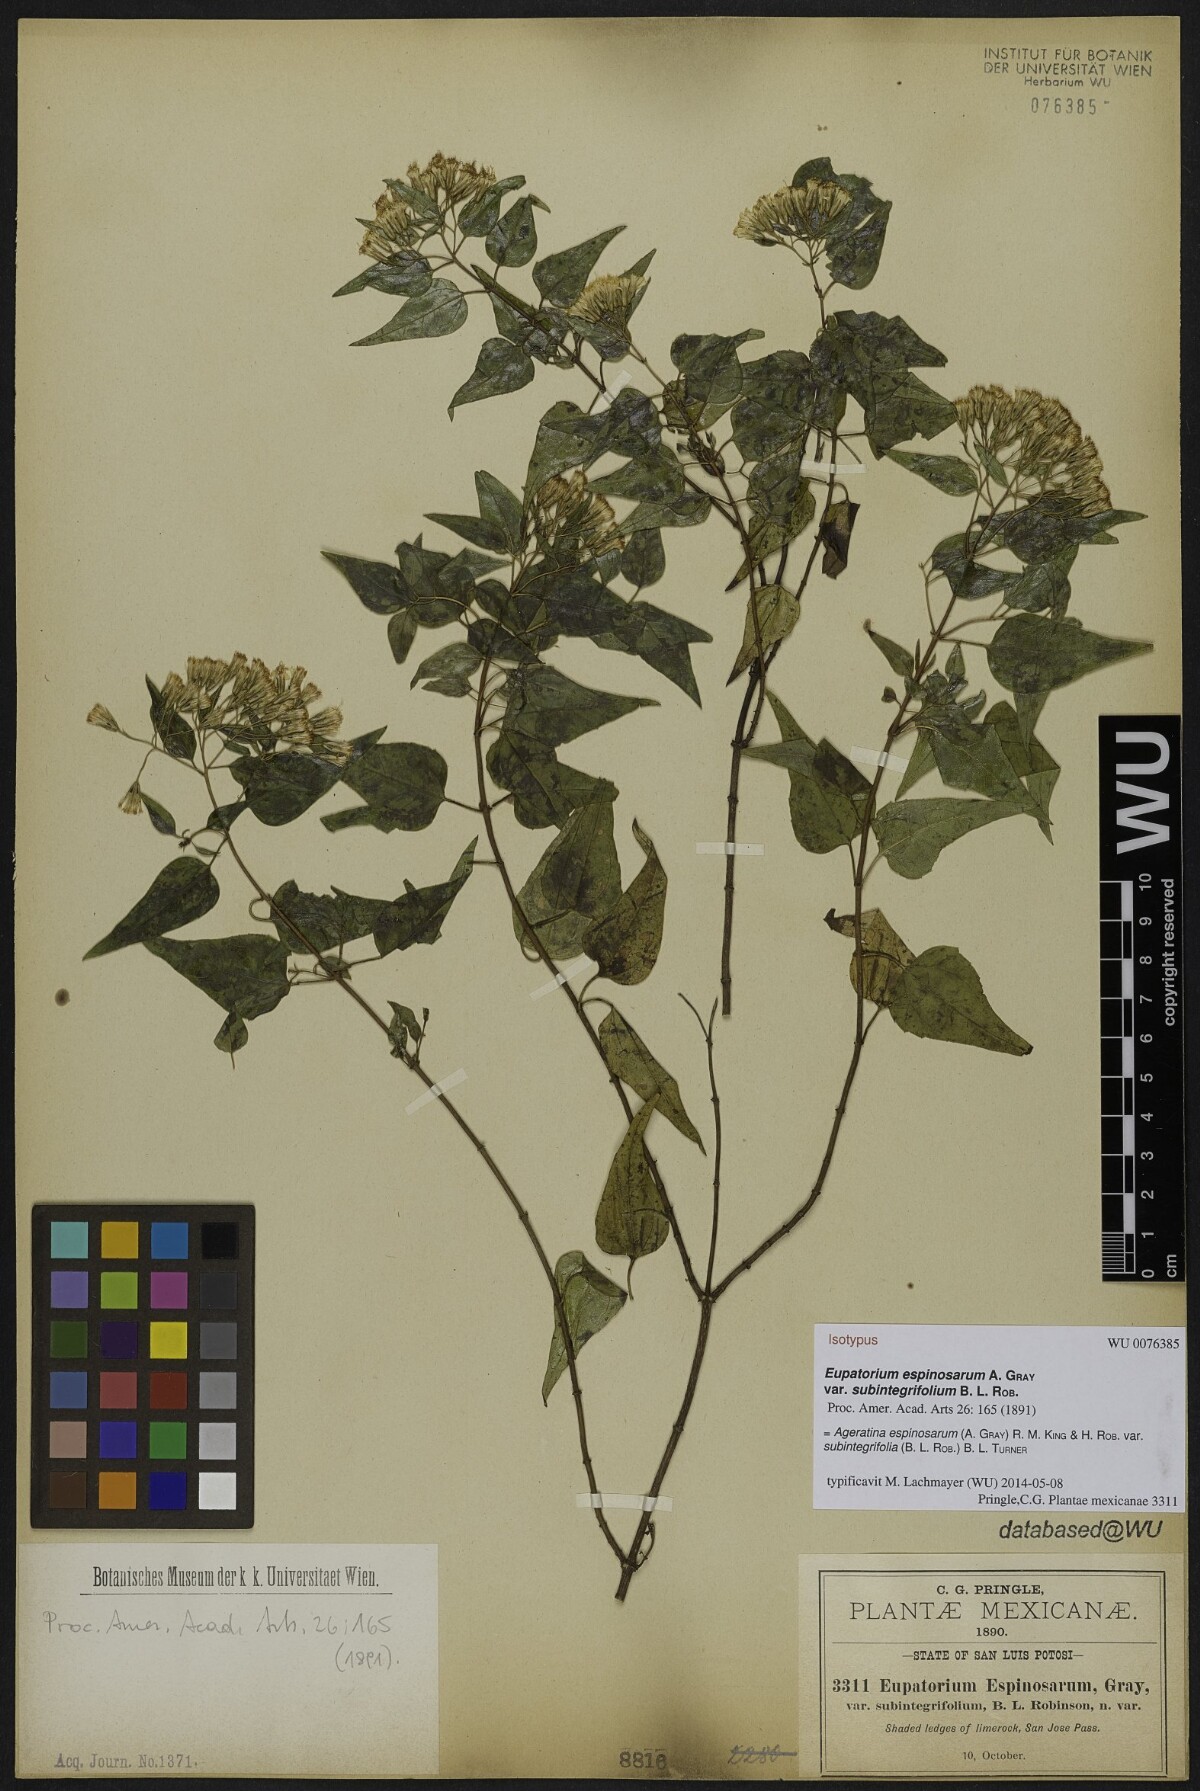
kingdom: Plantae
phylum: Tracheophyta
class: Magnoliopsida
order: Asterales
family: Asteraceae
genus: Ageratina
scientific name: Ageratina espinosarum
